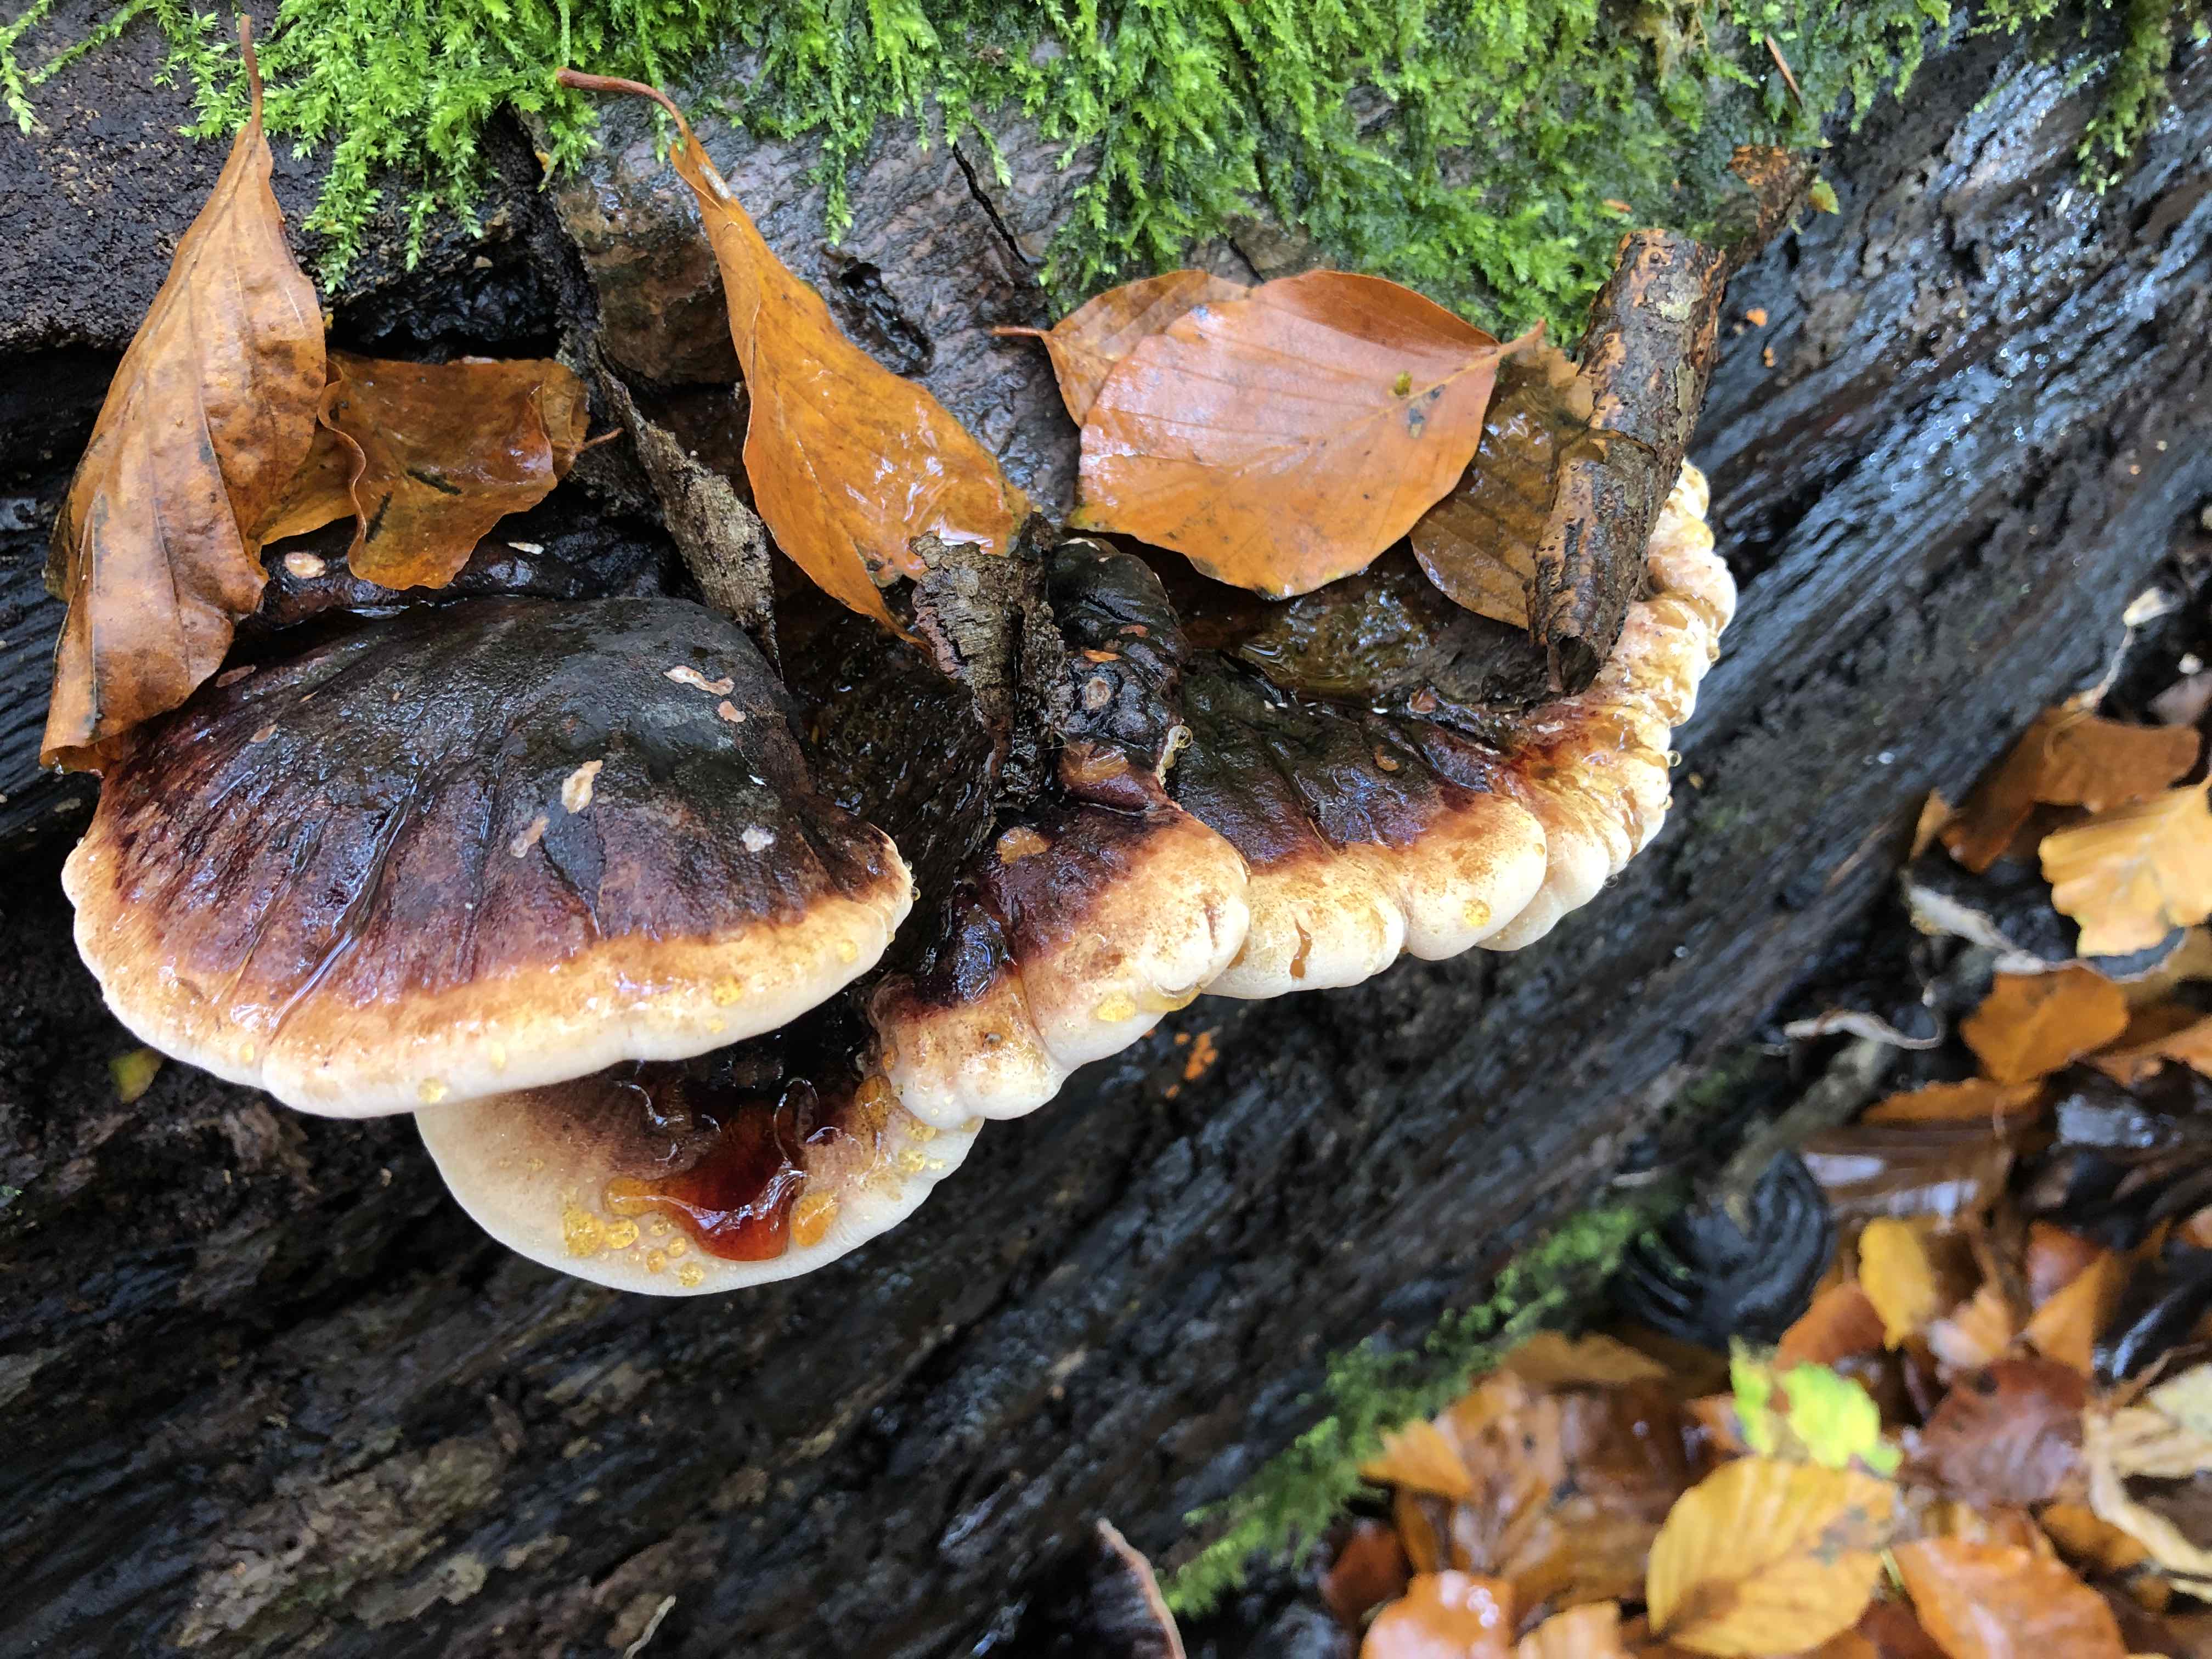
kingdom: Fungi
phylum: Basidiomycota
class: Agaricomycetes
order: Polyporales
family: Ischnodermataceae
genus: Ischnoderma
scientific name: Ischnoderma resinosum
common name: løv-tjæreporesvamp
